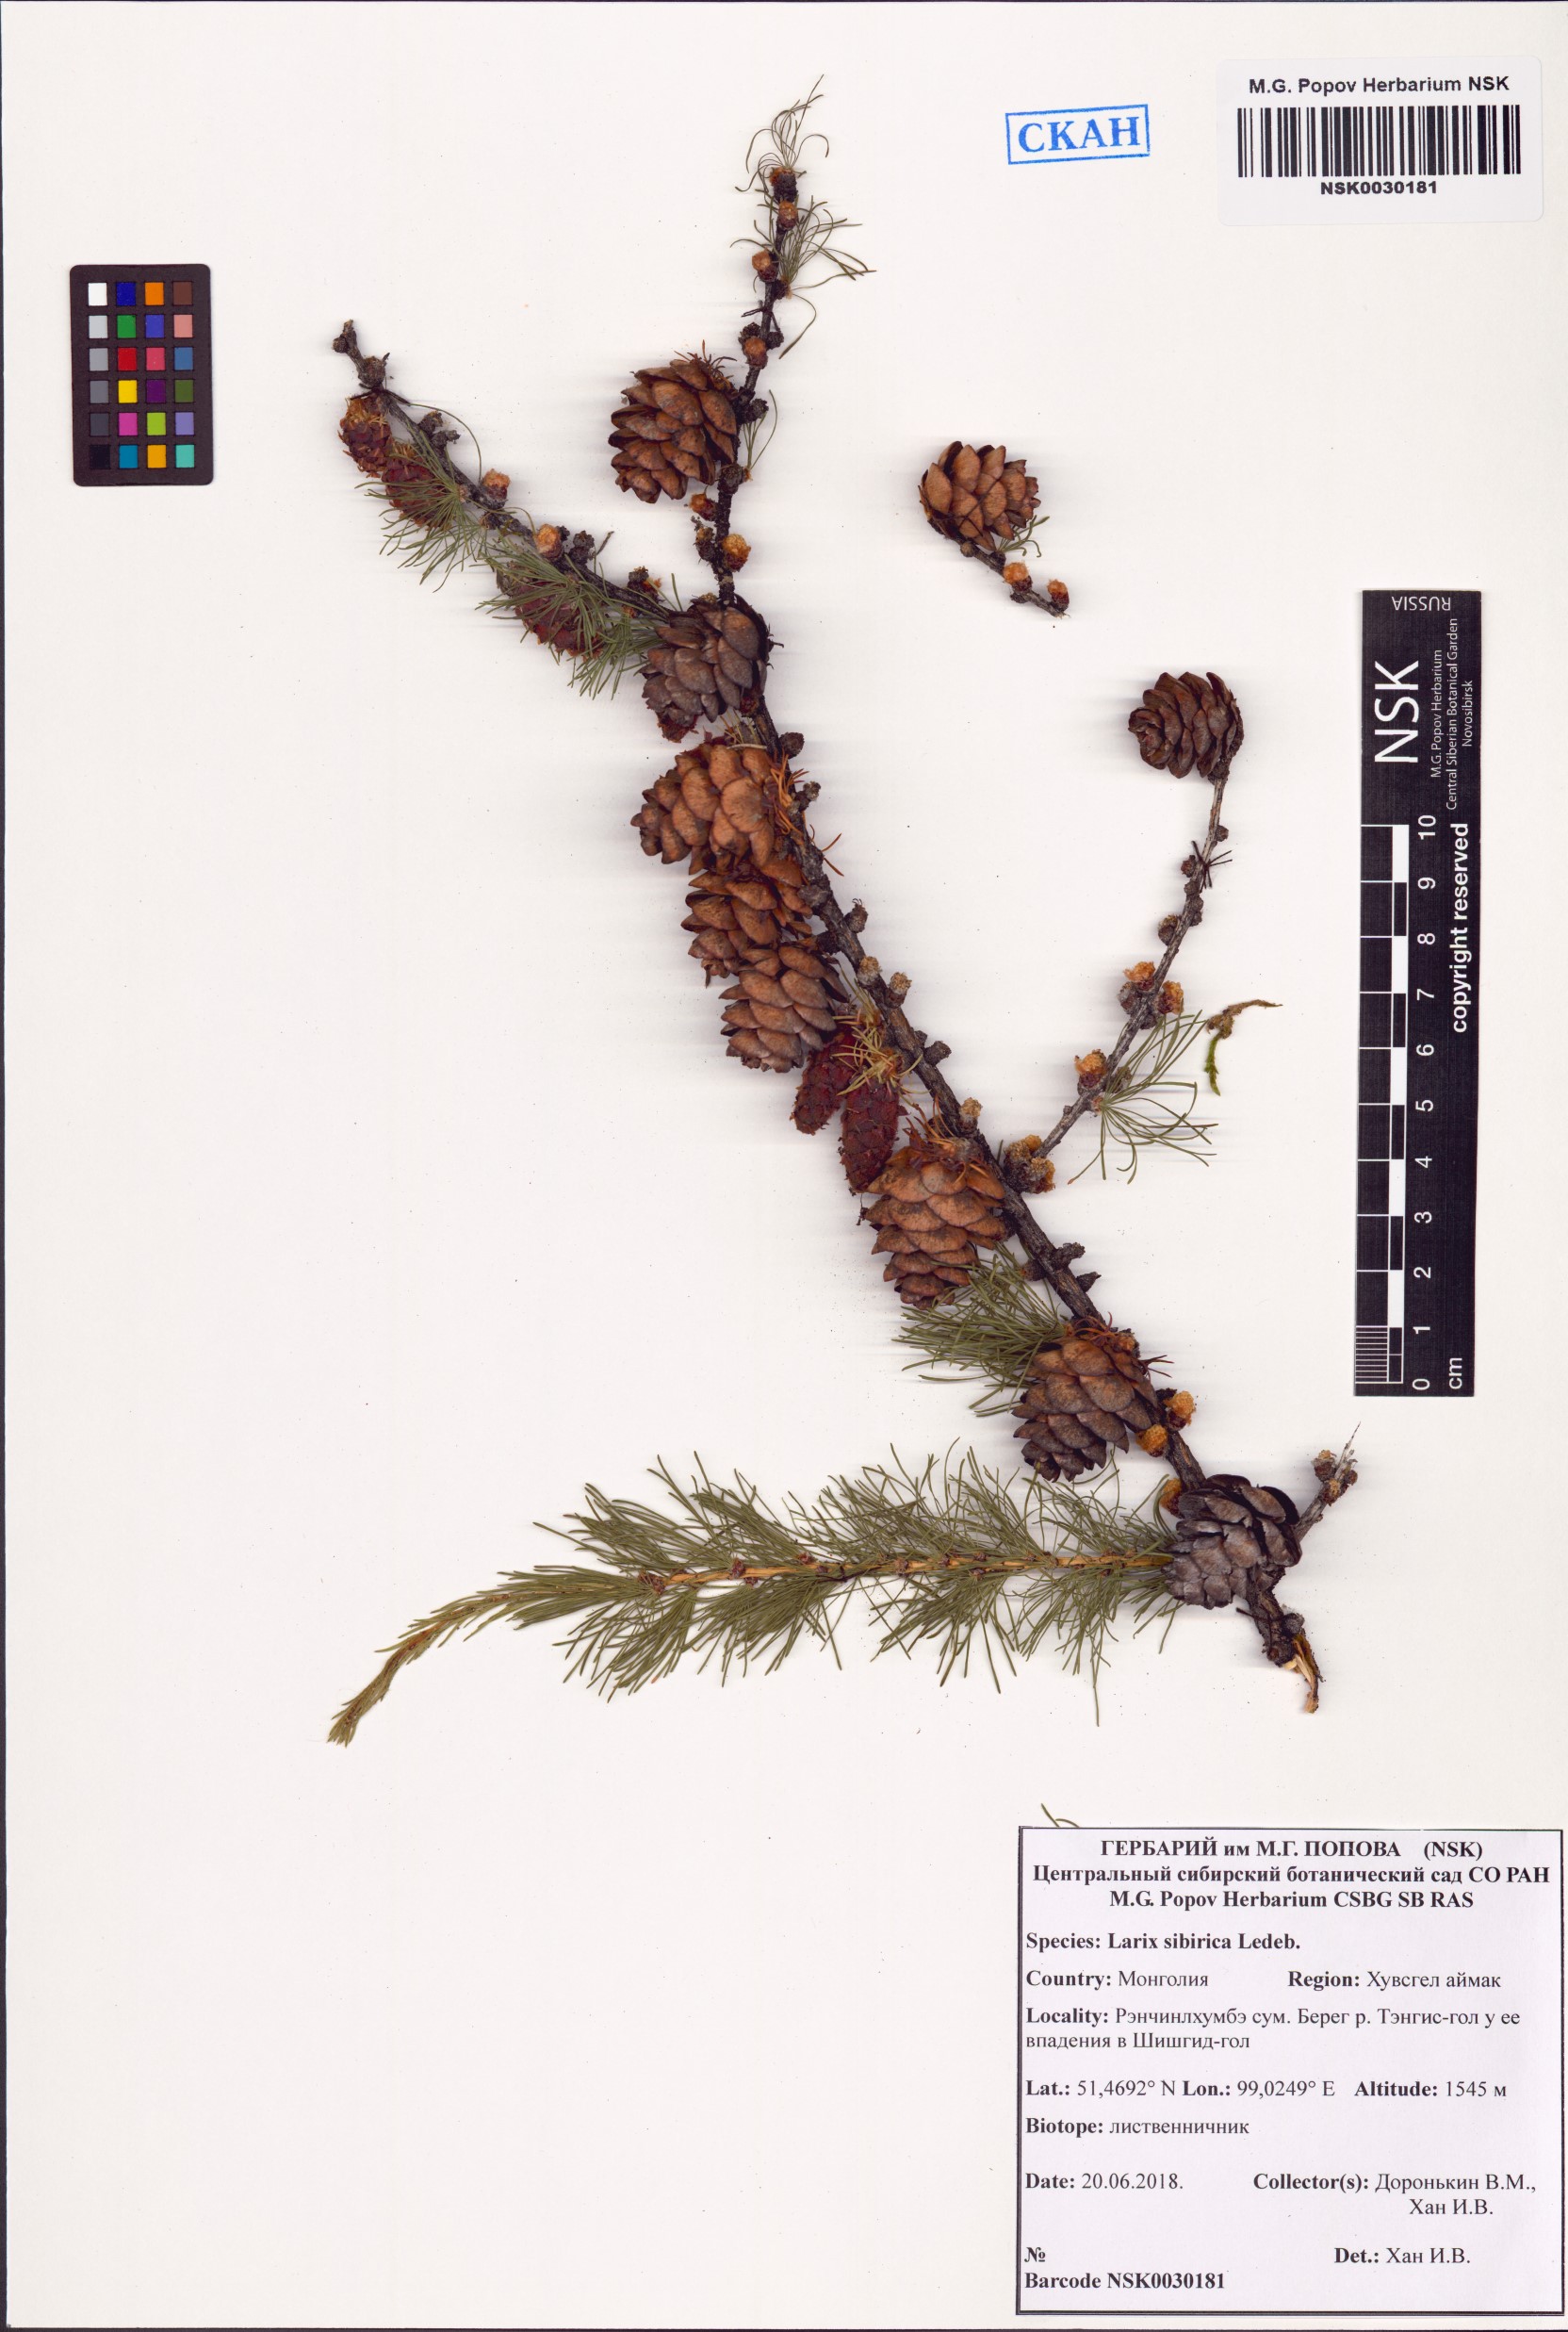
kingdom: Plantae
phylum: Tracheophyta
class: Pinopsida
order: Pinales
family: Pinaceae
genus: Larix
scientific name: Larix sibirica
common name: Siberian larch
